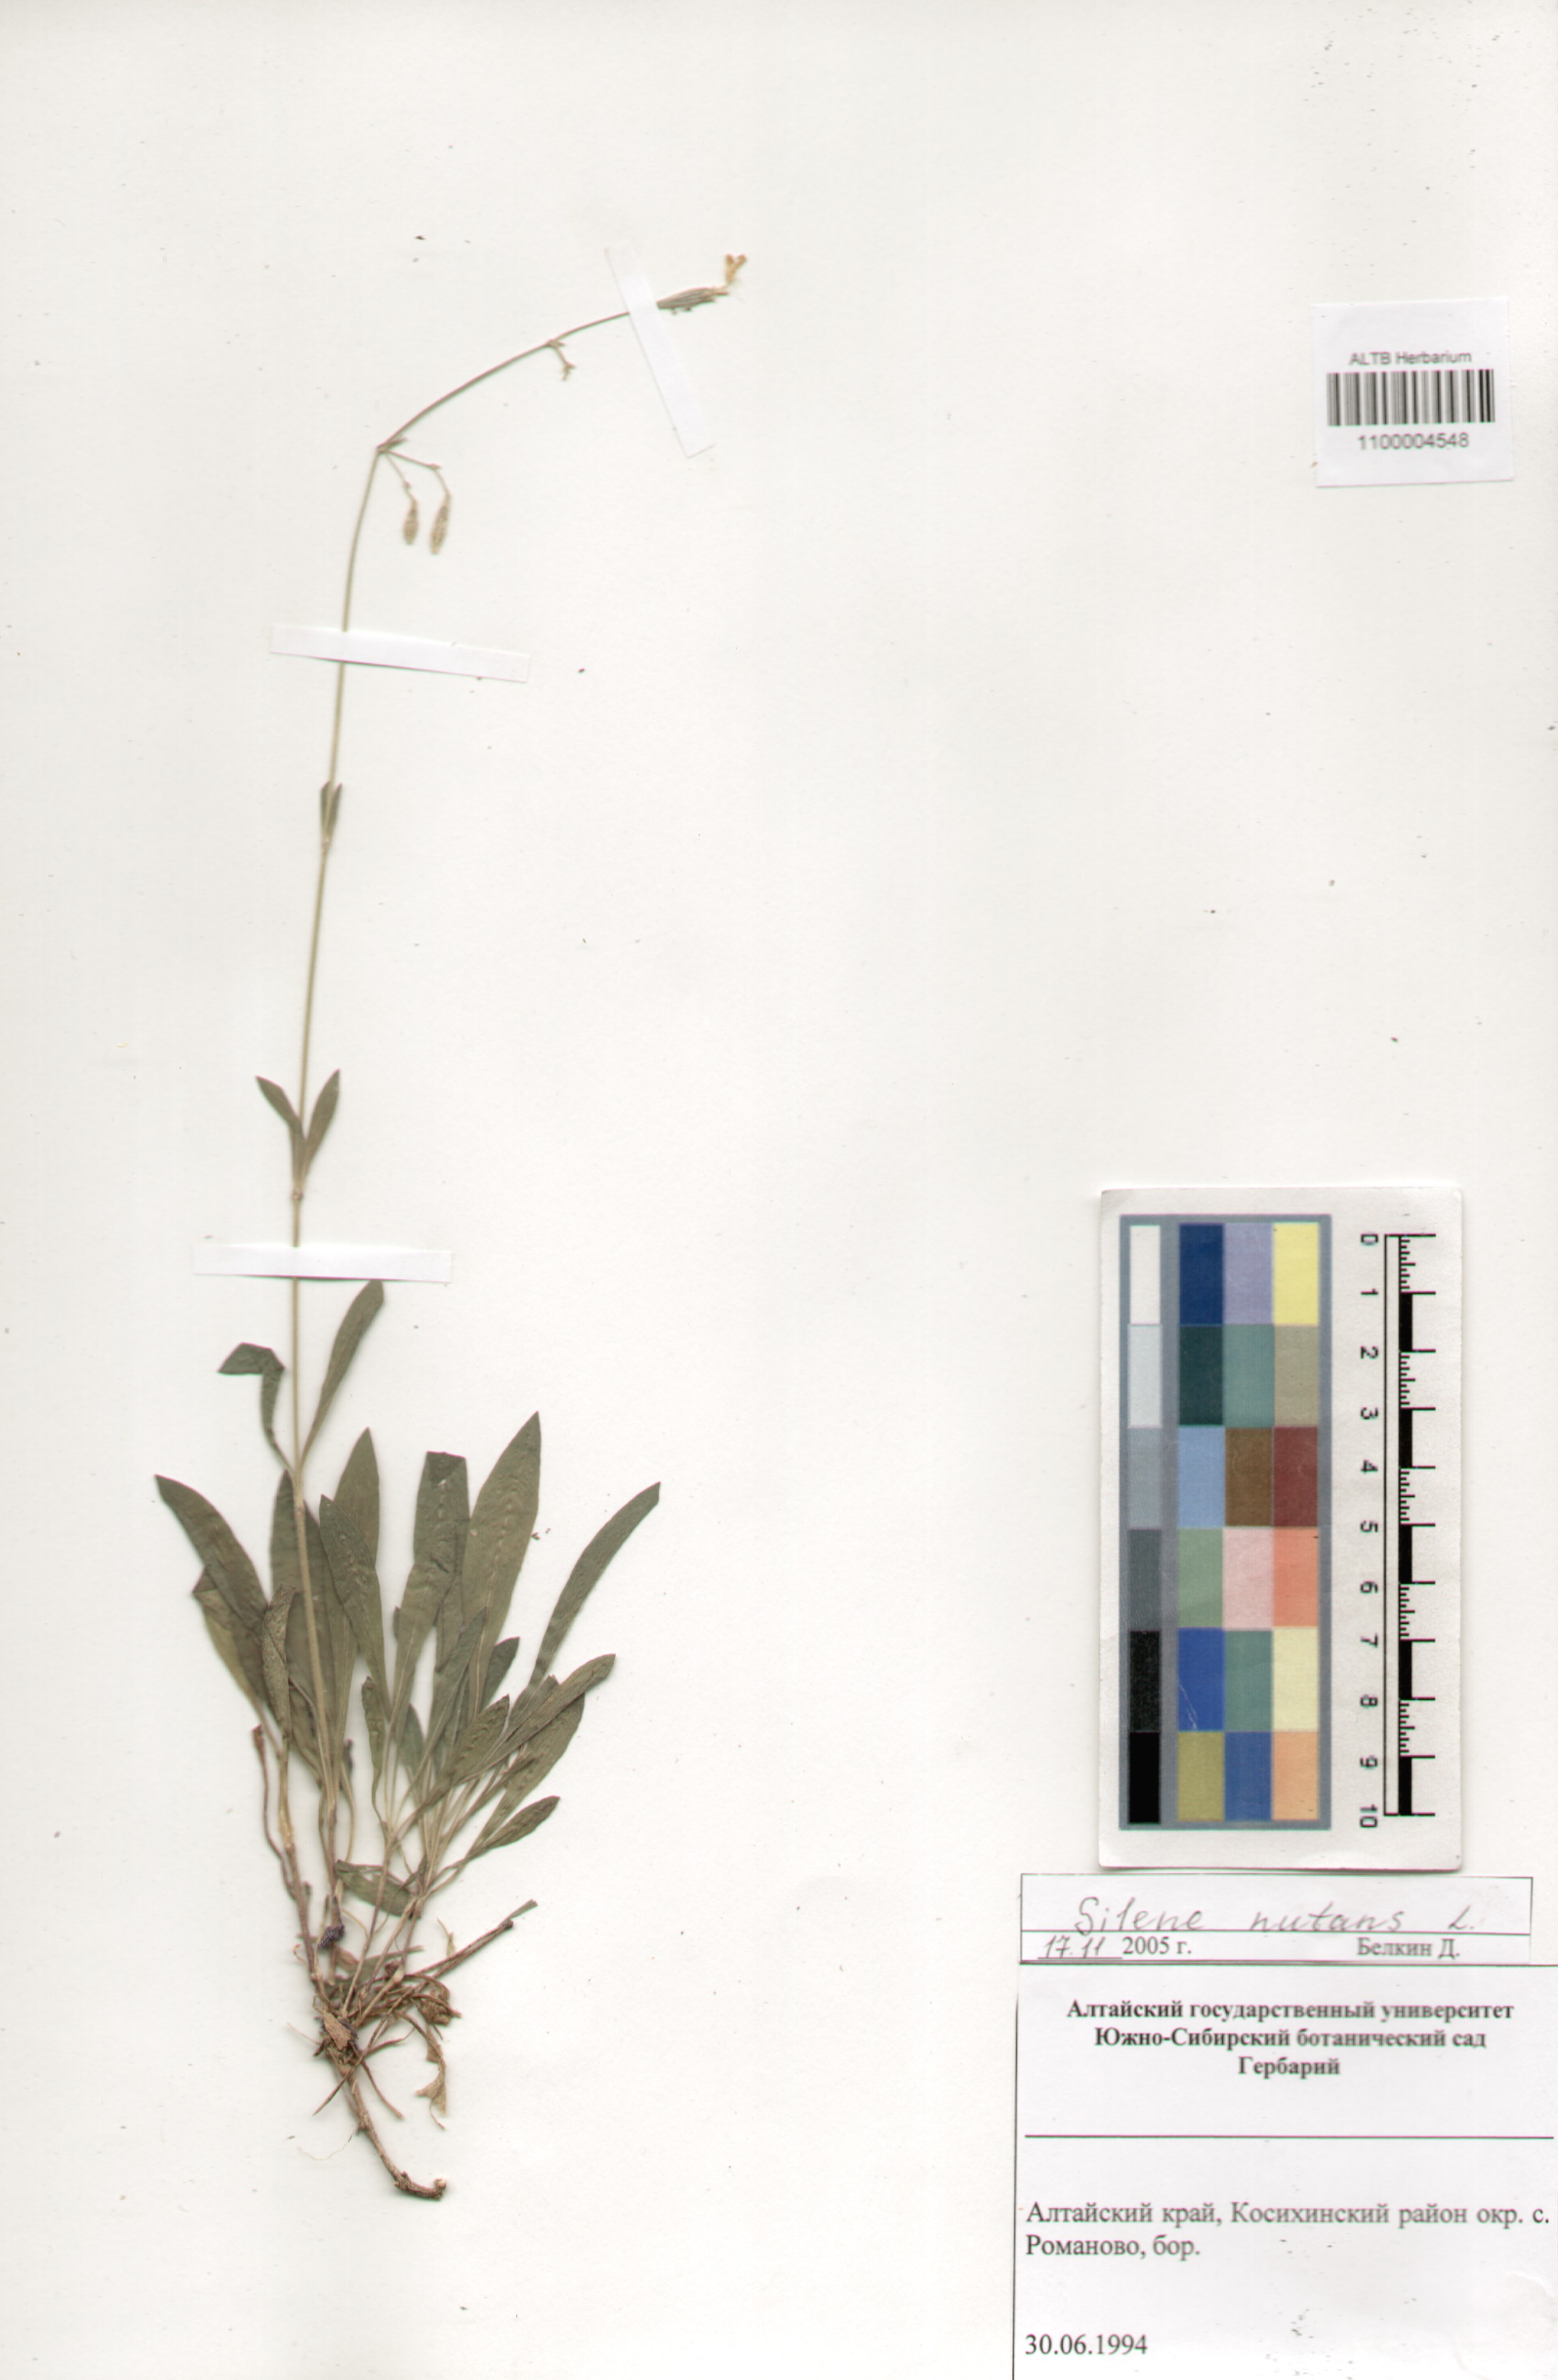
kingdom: Plantae
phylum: Tracheophyta
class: Magnoliopsida
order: Caryophyllales
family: Caryophyllaceae
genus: Silene
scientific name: Silene nutans
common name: Nottingham catchfly
